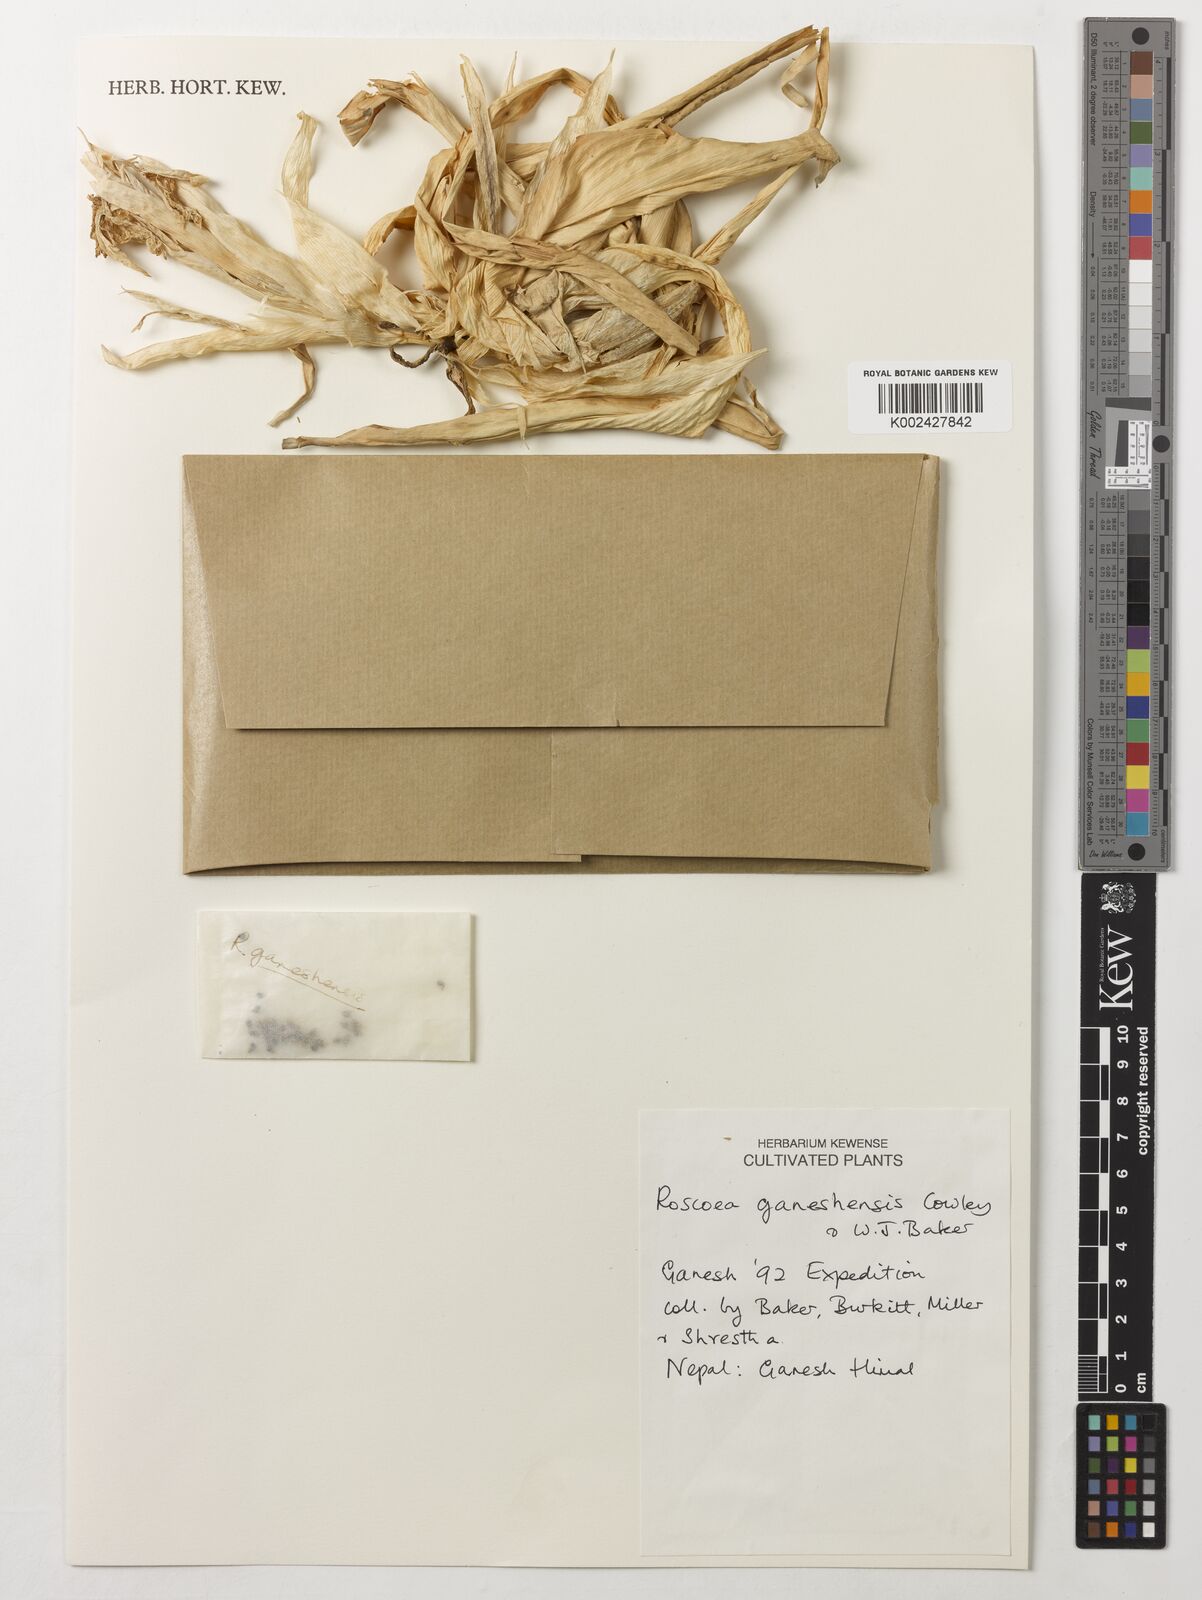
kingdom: Plantae
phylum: Tracheophyta
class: Liliopsida
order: Zingiberales
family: Zingiberaceae
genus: Roscoea
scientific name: Roscoea ganeshensis
